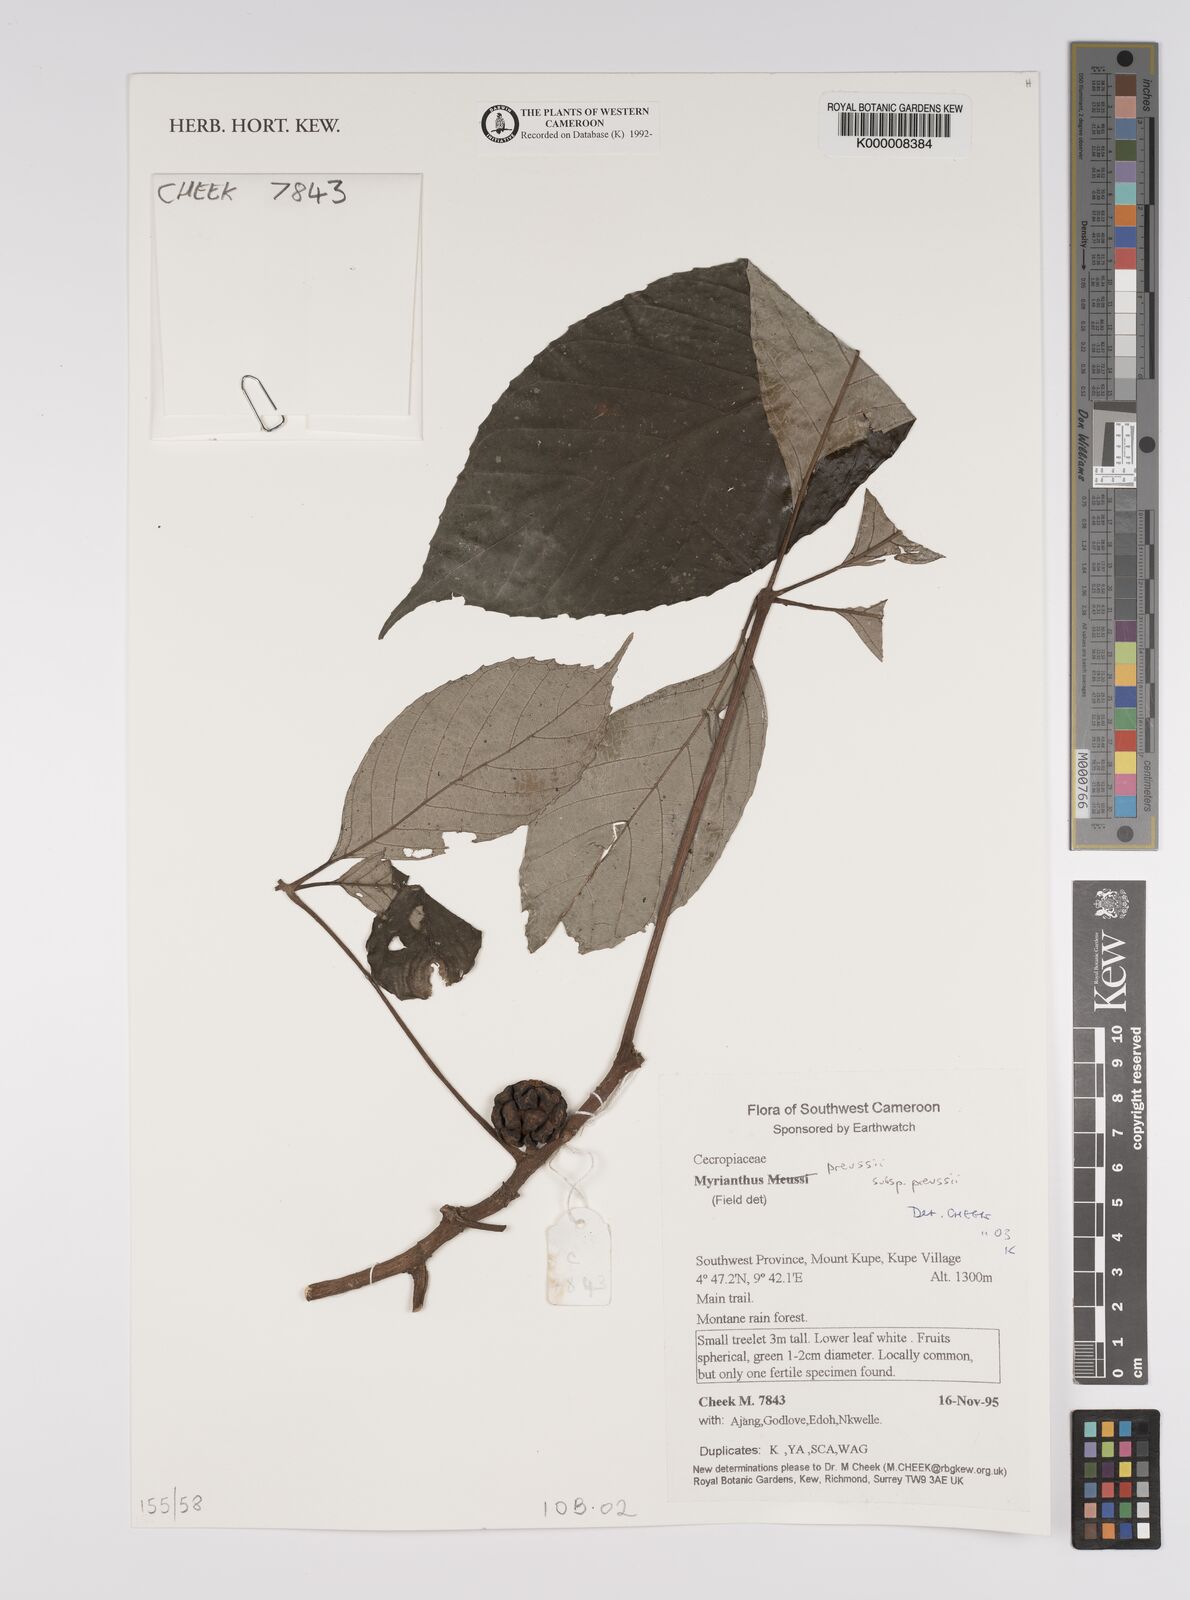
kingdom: Plantae
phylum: Tracheophyta
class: Magnoliopsida
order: Rosales
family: Urticaceae
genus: Myrianthus
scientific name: Myrianthus preussii
